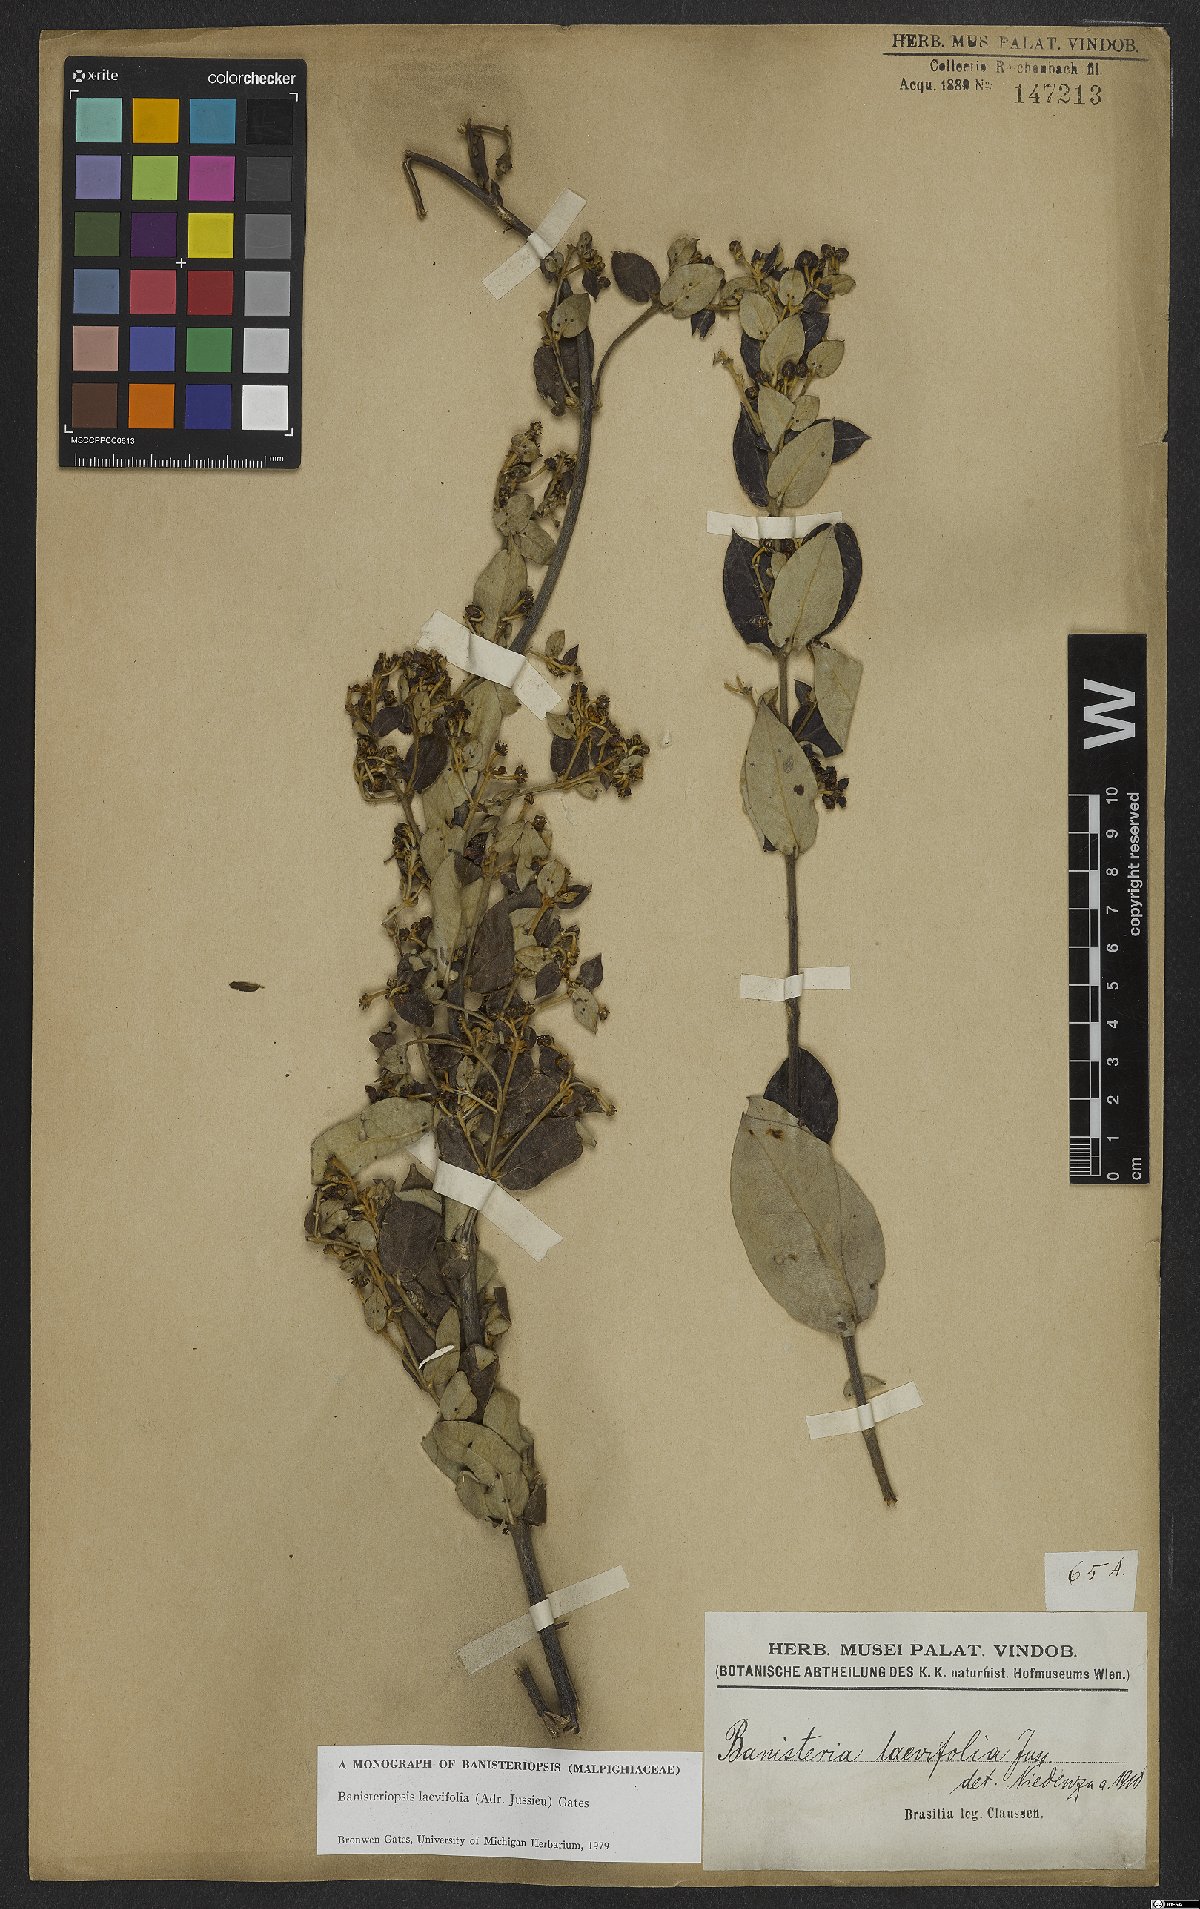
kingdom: Plantae
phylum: Tracheophyta
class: Magnoliopsida
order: Malpighiales
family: Malpighiaceae
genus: Banisteriopsis
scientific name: Banisteriopsis laevifolia
